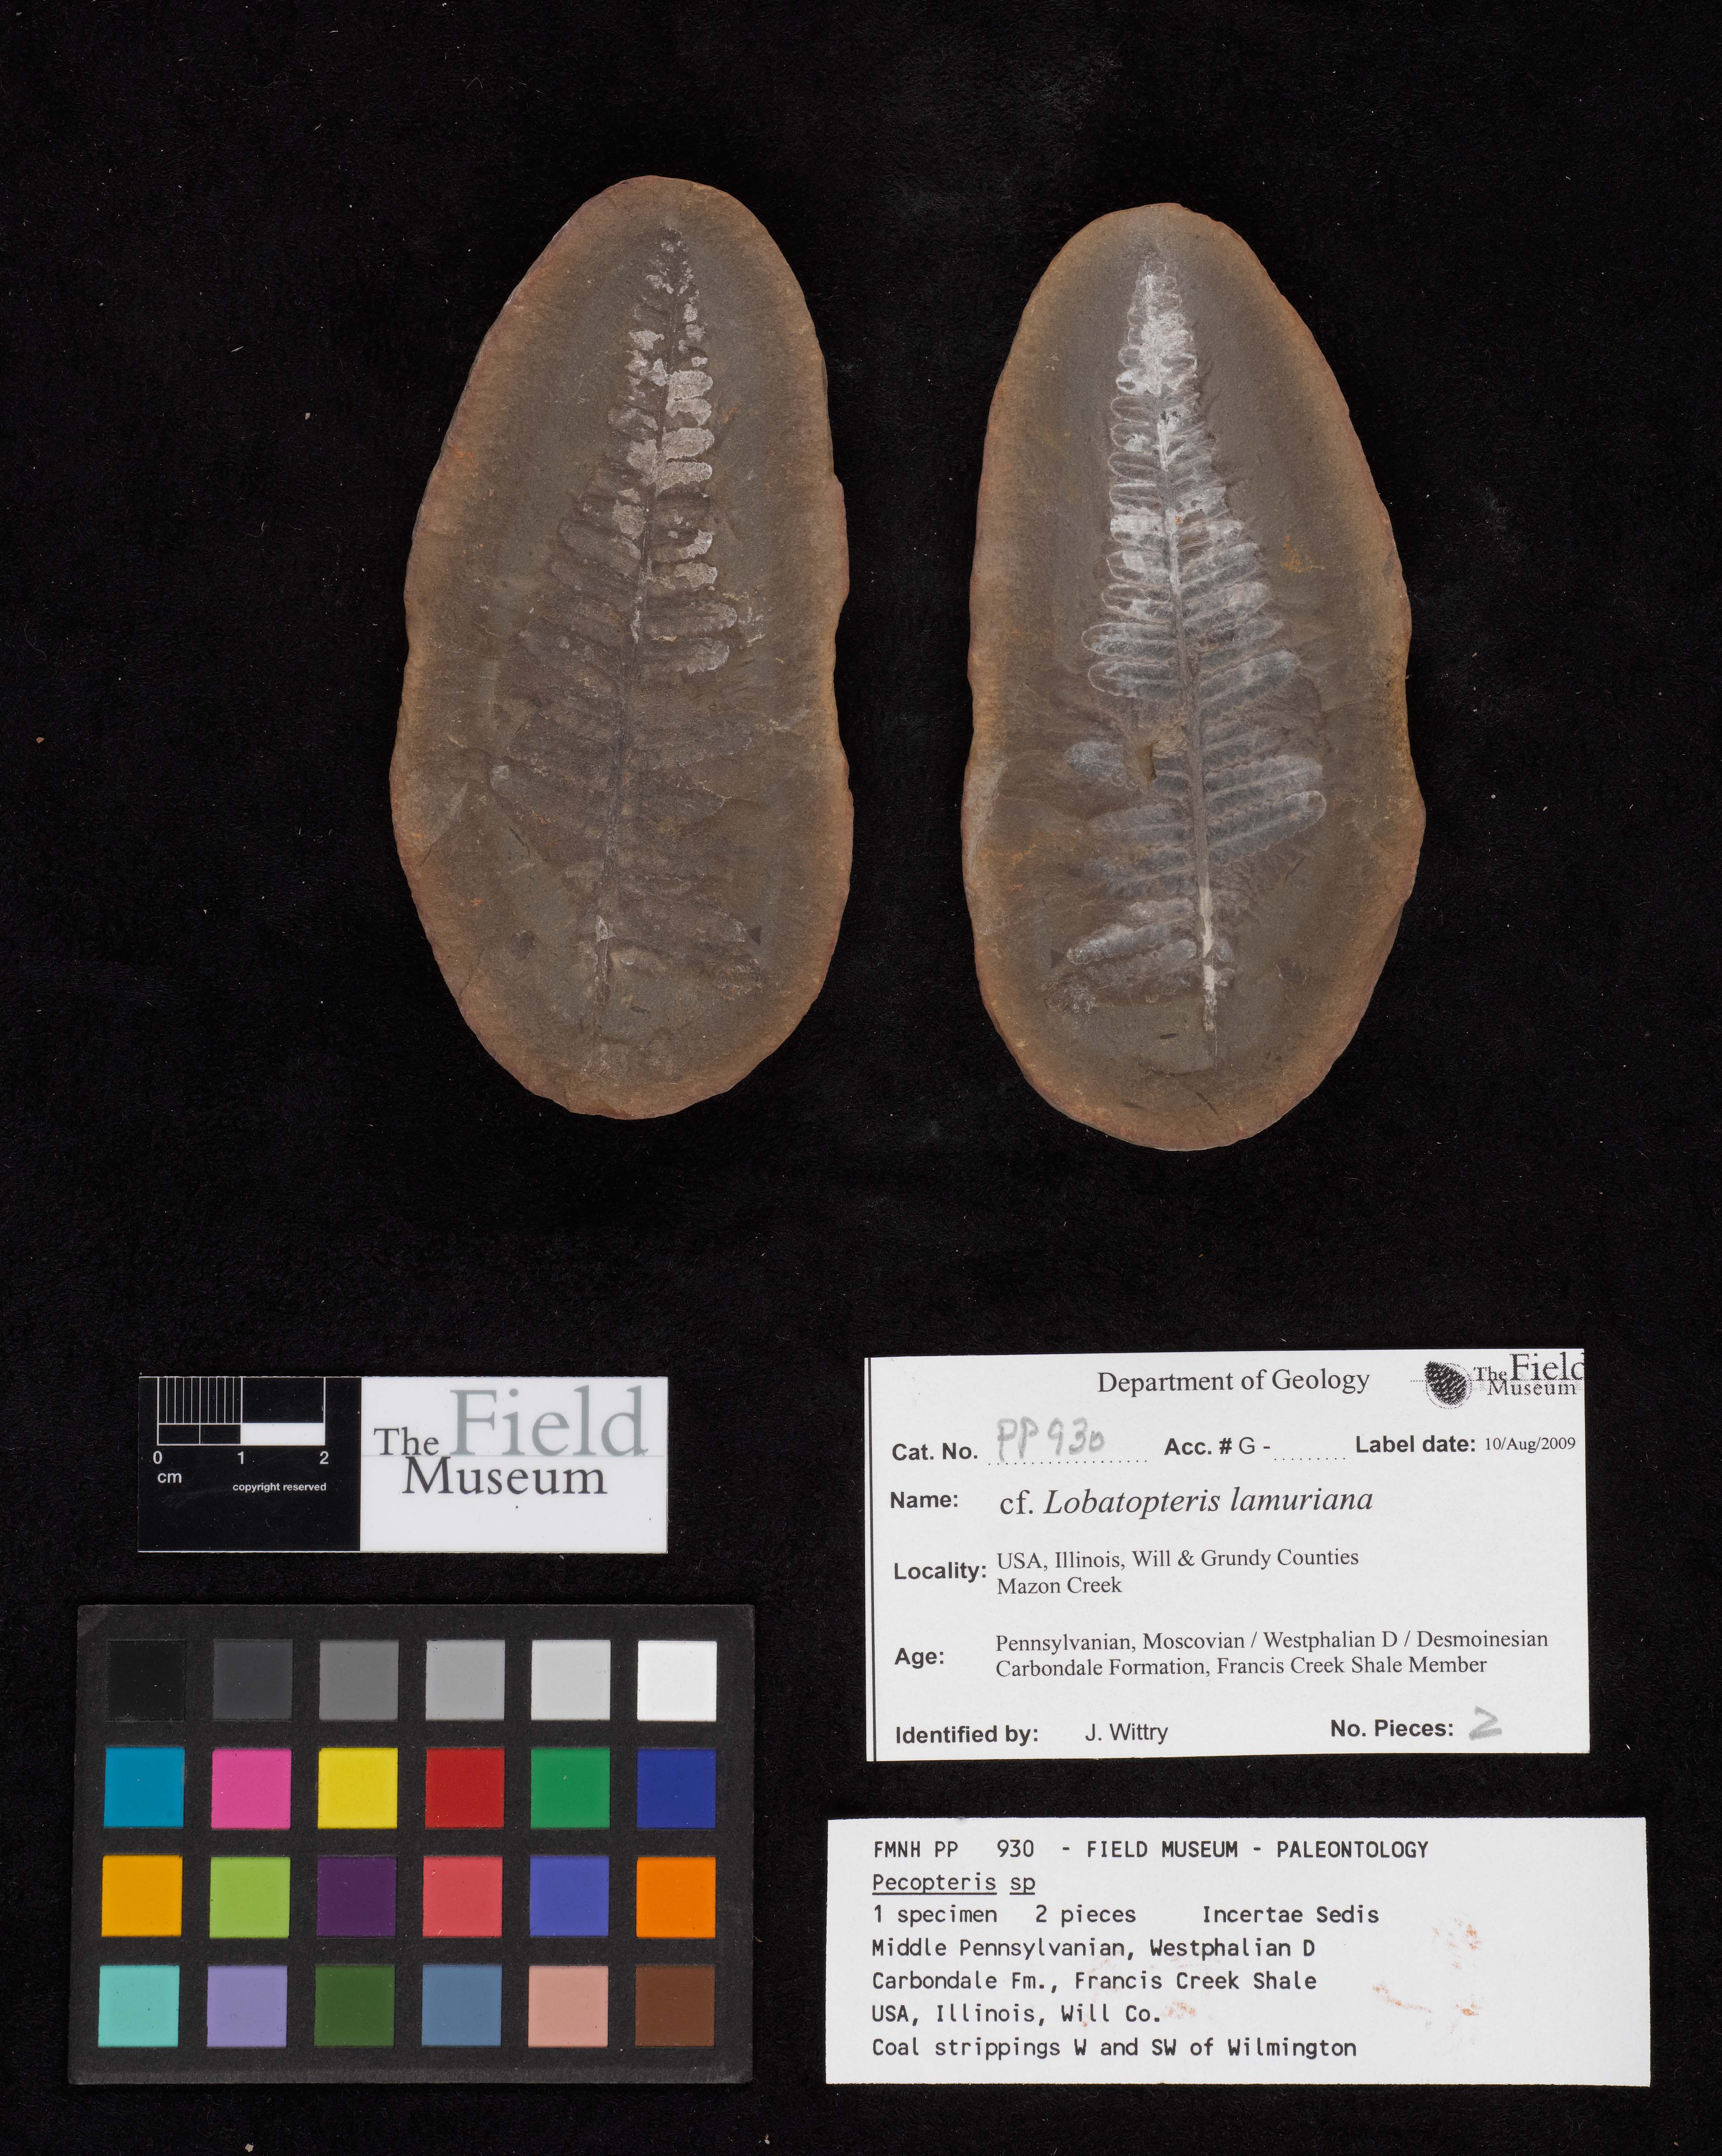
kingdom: Plantae
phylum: Tracheophyta
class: Polypodiopsida
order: Marattiales
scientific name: Marattiales
